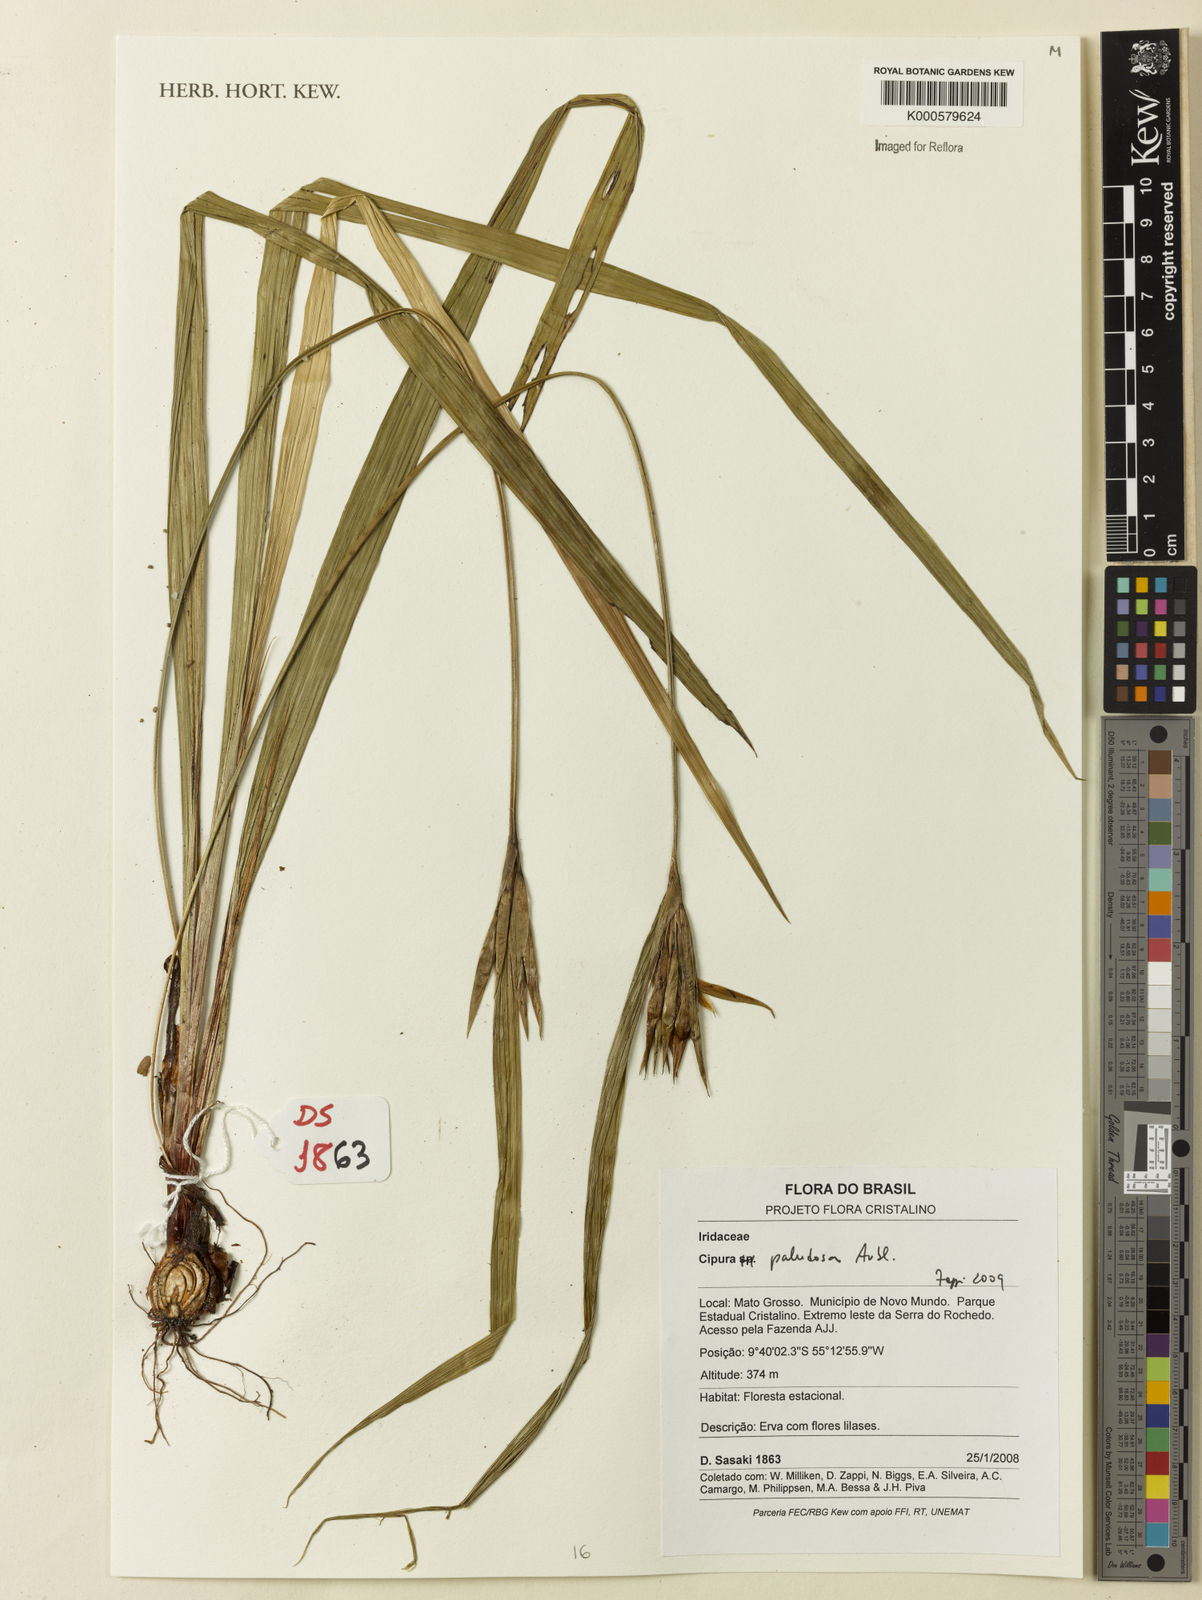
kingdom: Plantae
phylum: Tracheophyta
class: Liliopsida
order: Asparagales
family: Iridaceae
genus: Cipura
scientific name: Cipura paludosa
